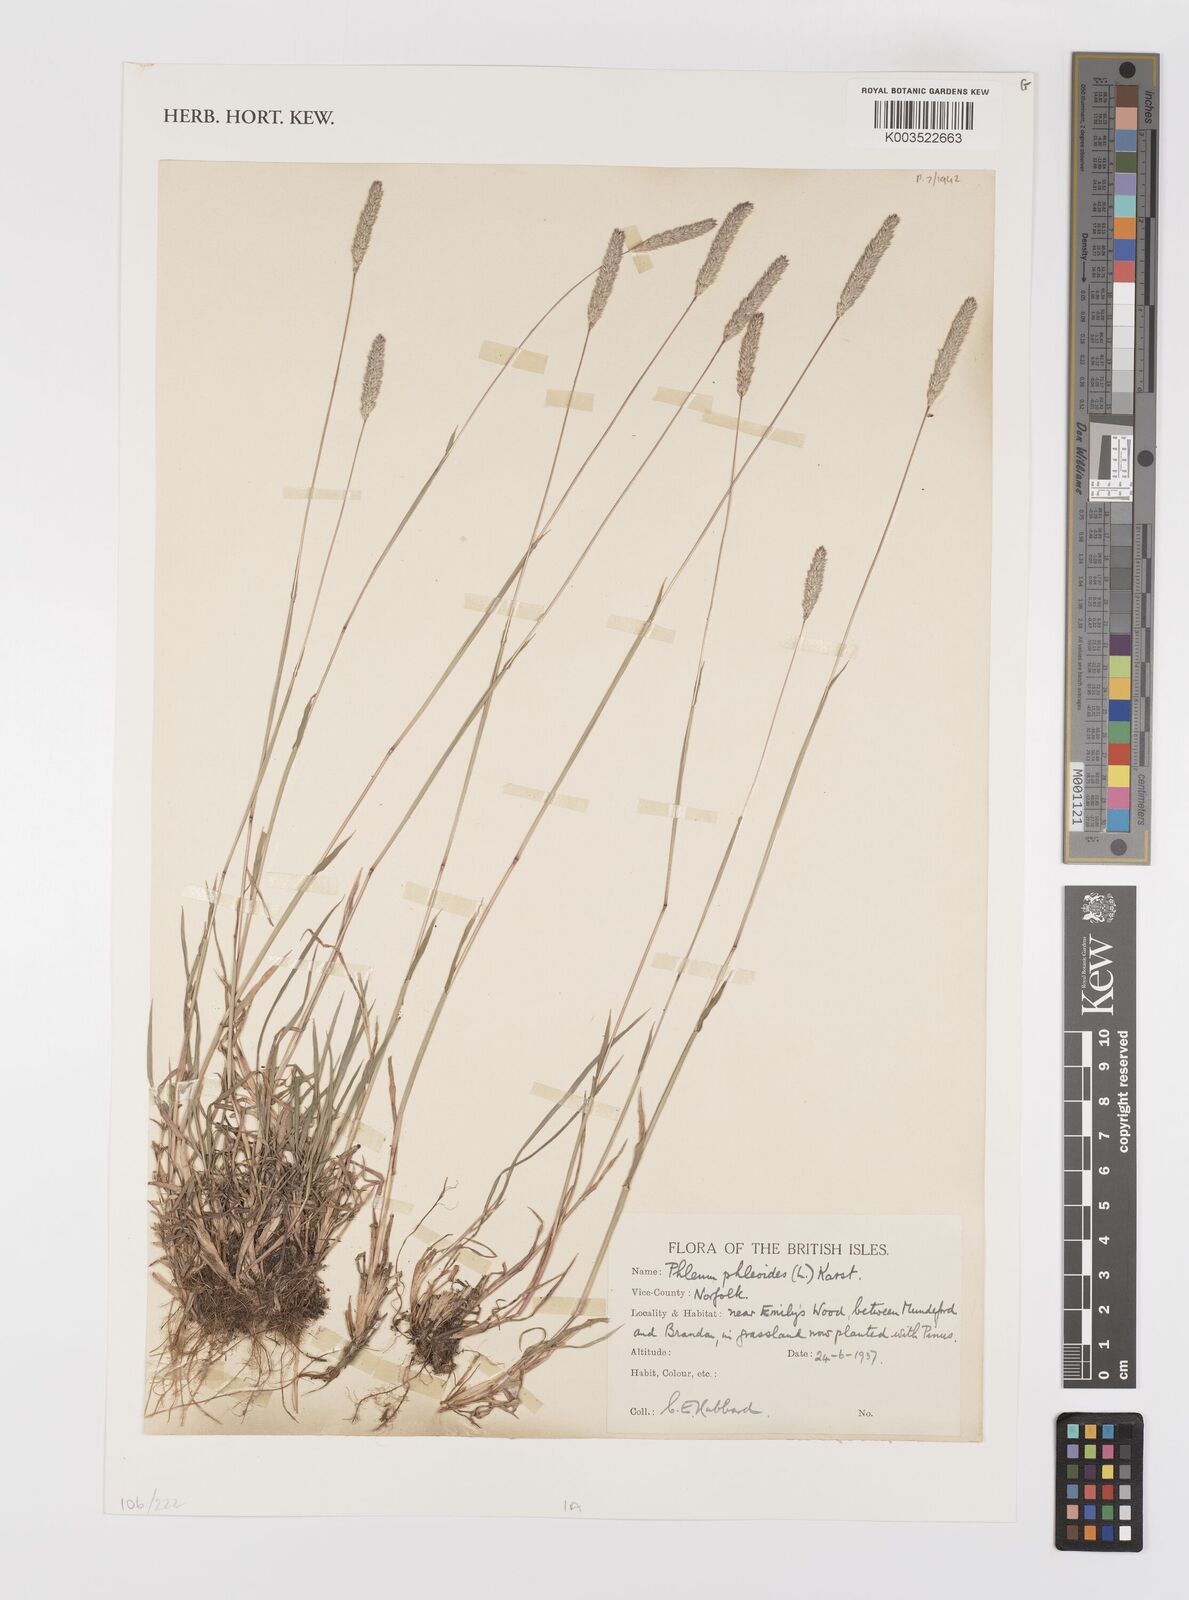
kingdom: Plantae
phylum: Tracheophyta
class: Liliopsida
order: Poales
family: Poaceae
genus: Phleum
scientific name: Phleum phleoides
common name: Purple-stem cat's-tail
